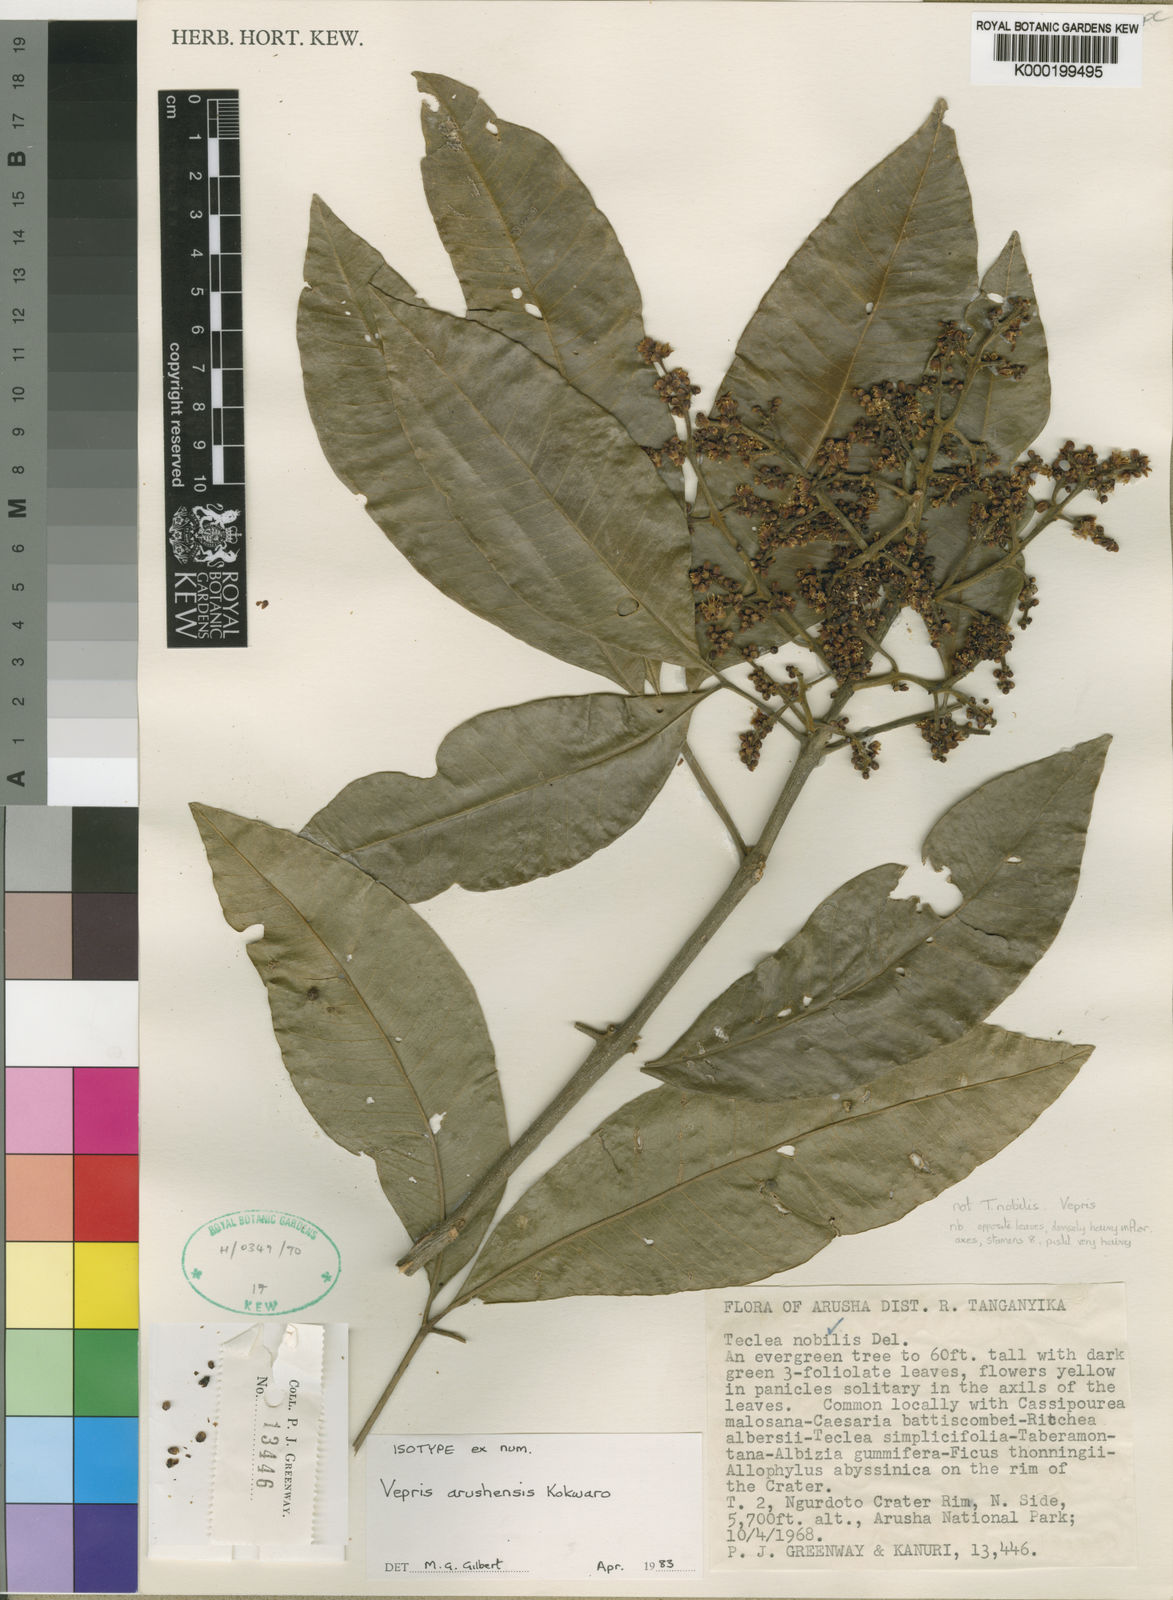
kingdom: Plantae
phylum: Tracheophyta
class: Magnoliopsida
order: Sapindales
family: Rutaceae
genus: Vepris
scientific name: Vepris arushensis
